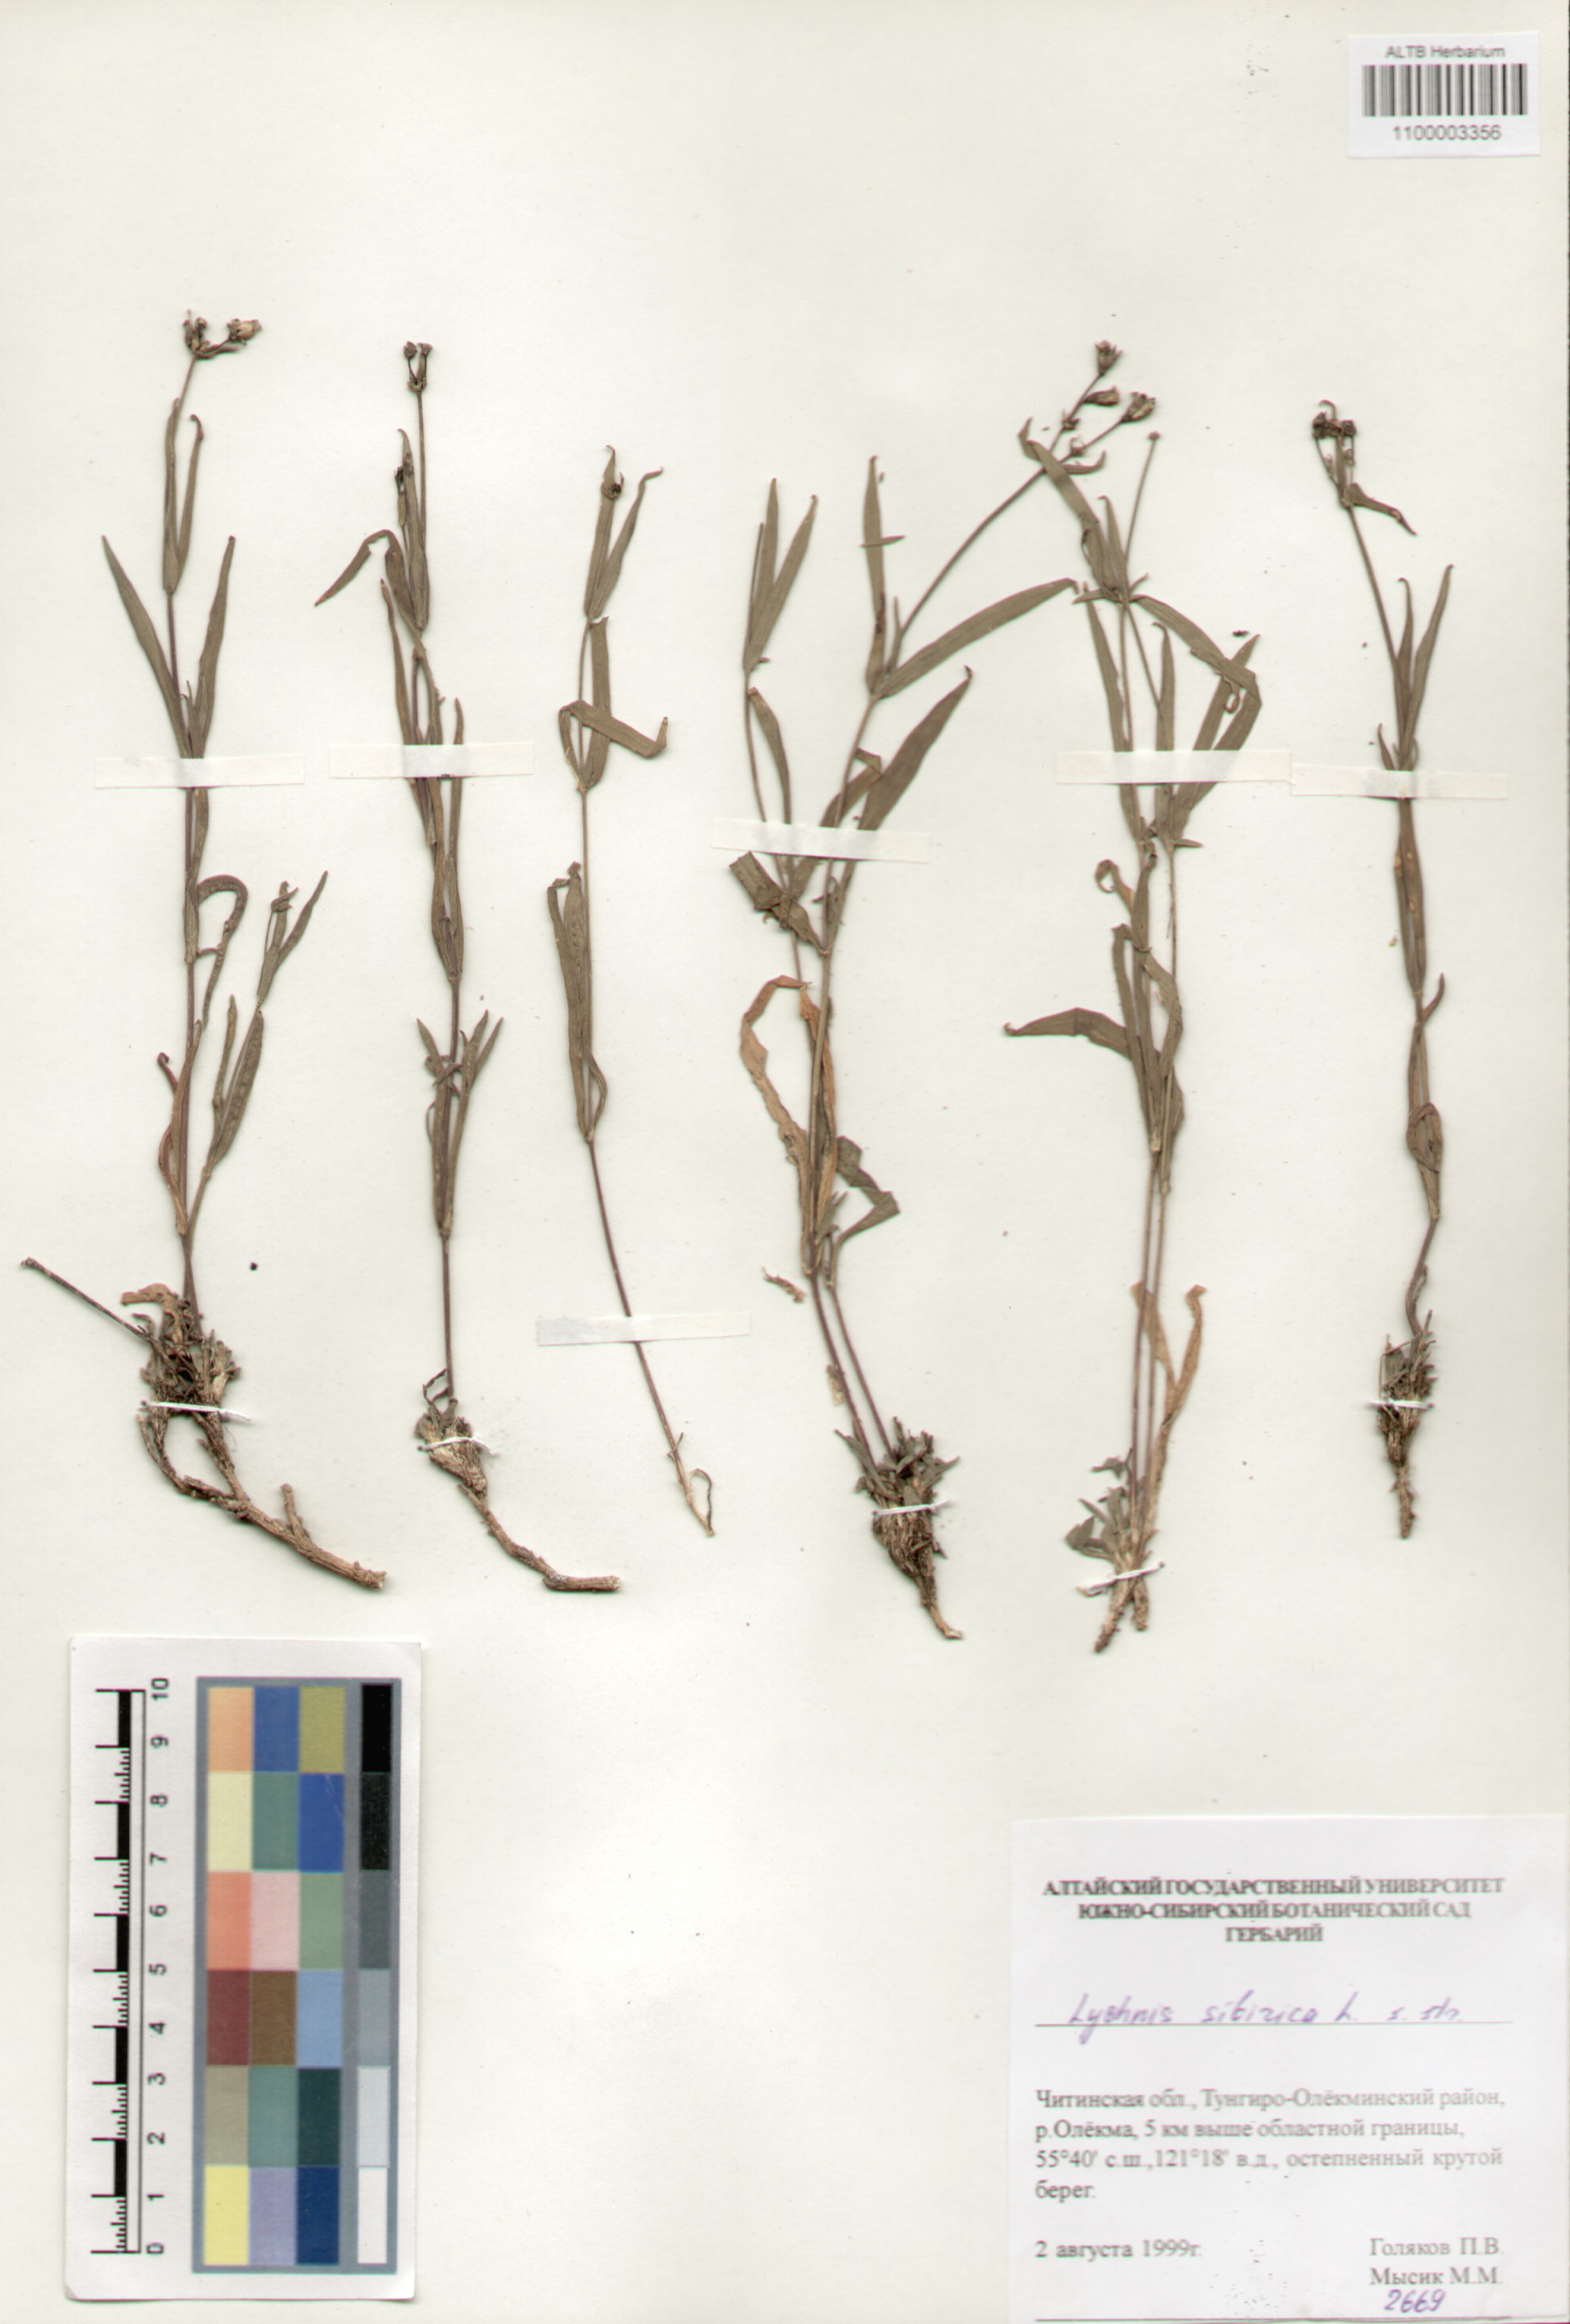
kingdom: Plantae
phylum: Tracheophyta
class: Magnoliopsida
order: Caryophyllales
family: Caryophyllaceae
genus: Silene
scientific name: Silene orientalimongolica
